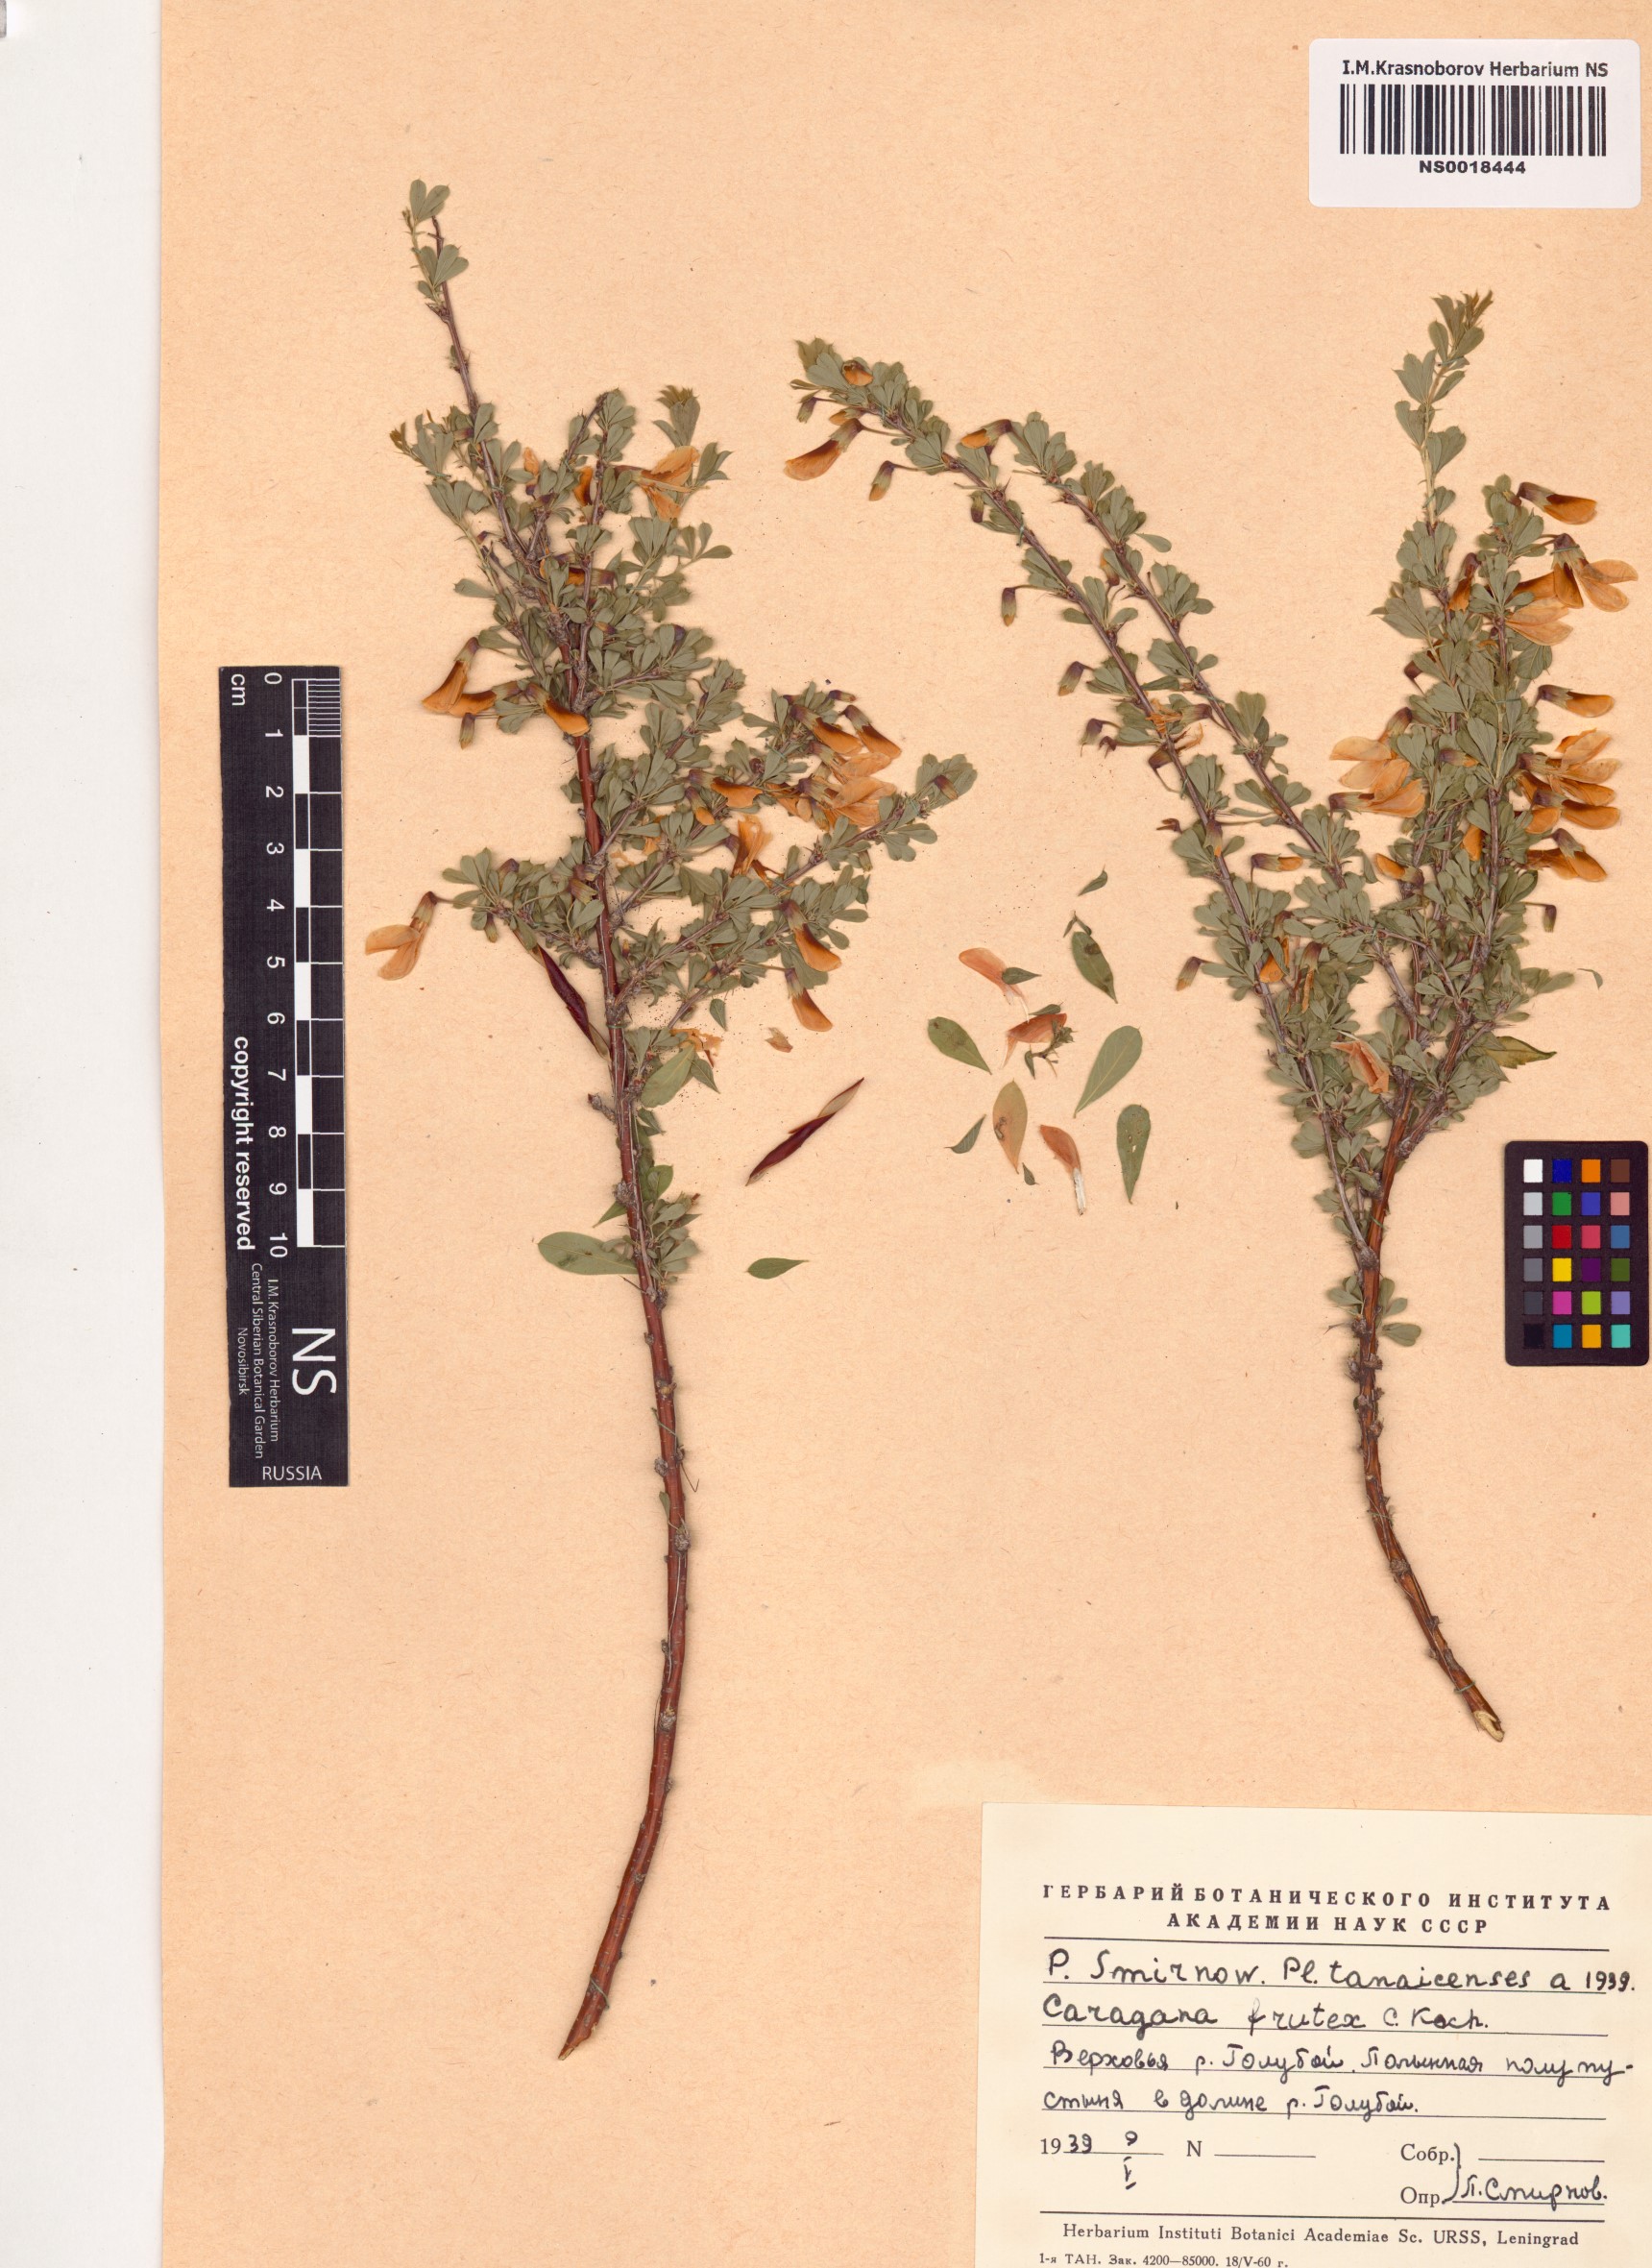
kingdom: Plantae
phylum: Tracheophyta
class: Magnoliopsida
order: Fabales
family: Fabaceae
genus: Caragana
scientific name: Caragana frutex
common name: Russian peashrub
